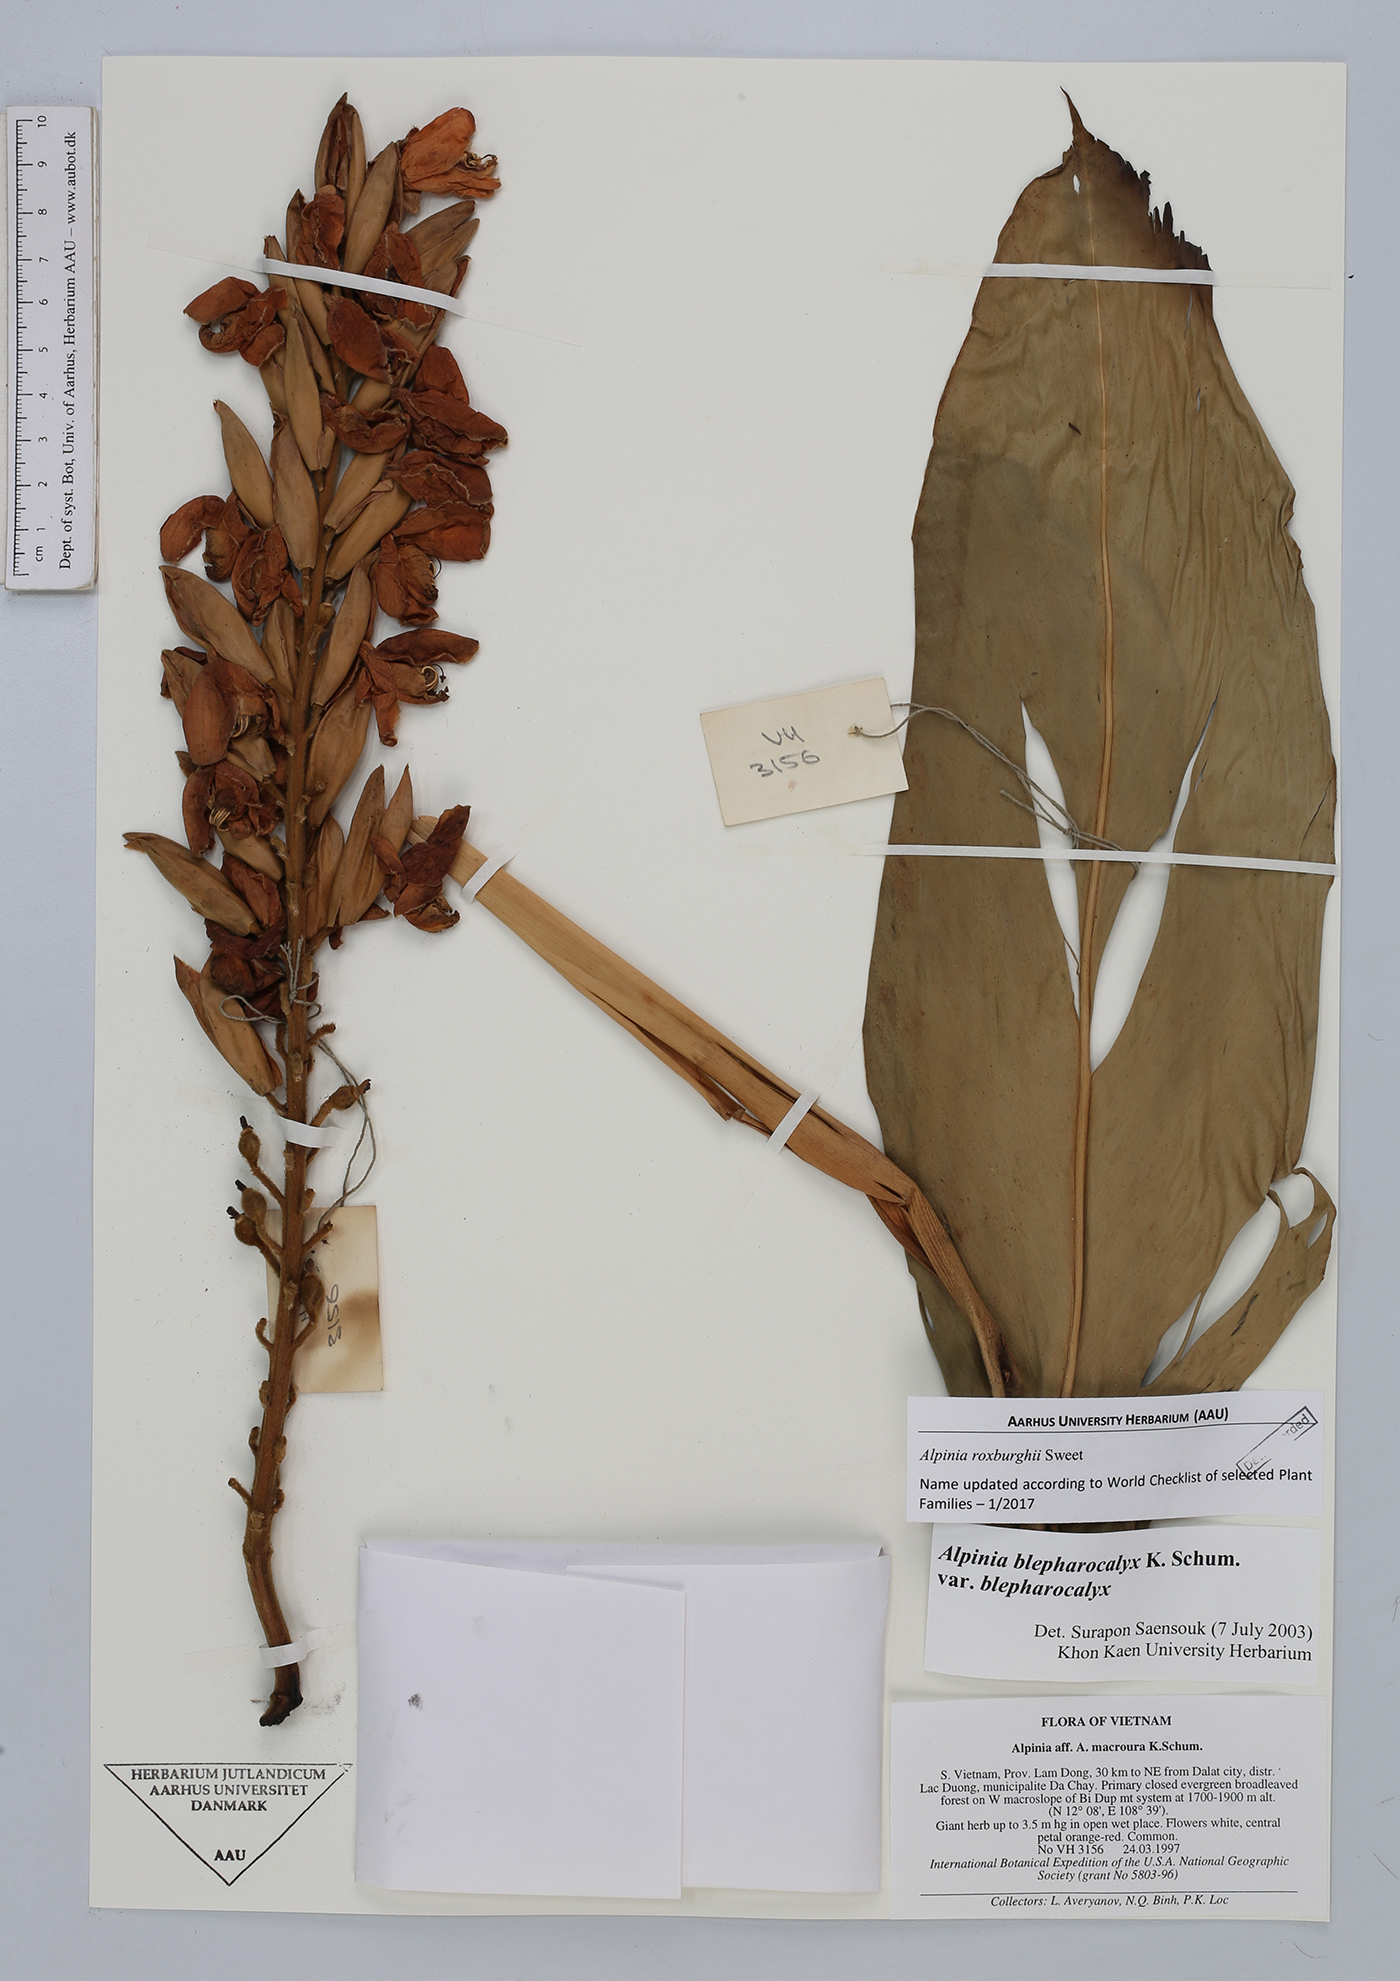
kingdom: Plantae
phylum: Tracheophyta
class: Liliopsida
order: Zingiberales
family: Zingiberaceae
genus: Alpinia
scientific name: Alpinia roxburghii
